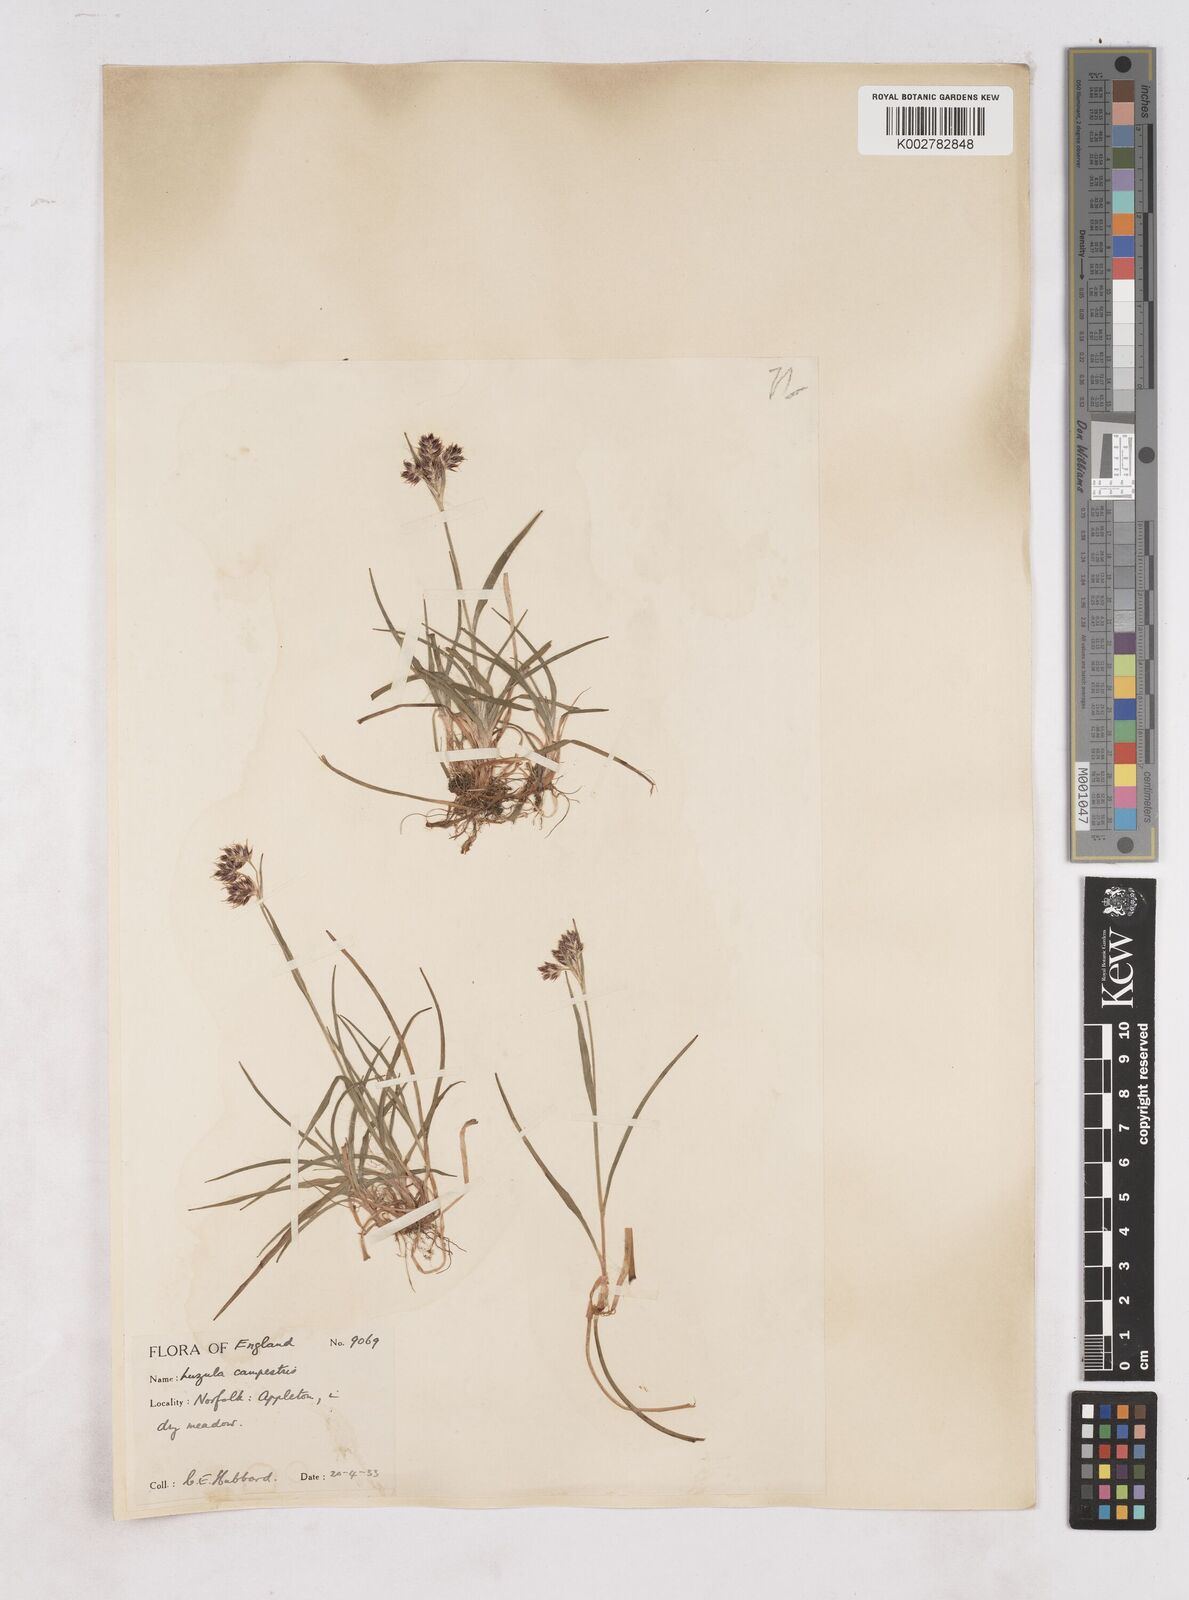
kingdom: Plantae
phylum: Tracheophyta
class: Liliopsida
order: Poales
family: Juncaceae
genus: Luzula
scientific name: Luzula campestris
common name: Field wood-rush
